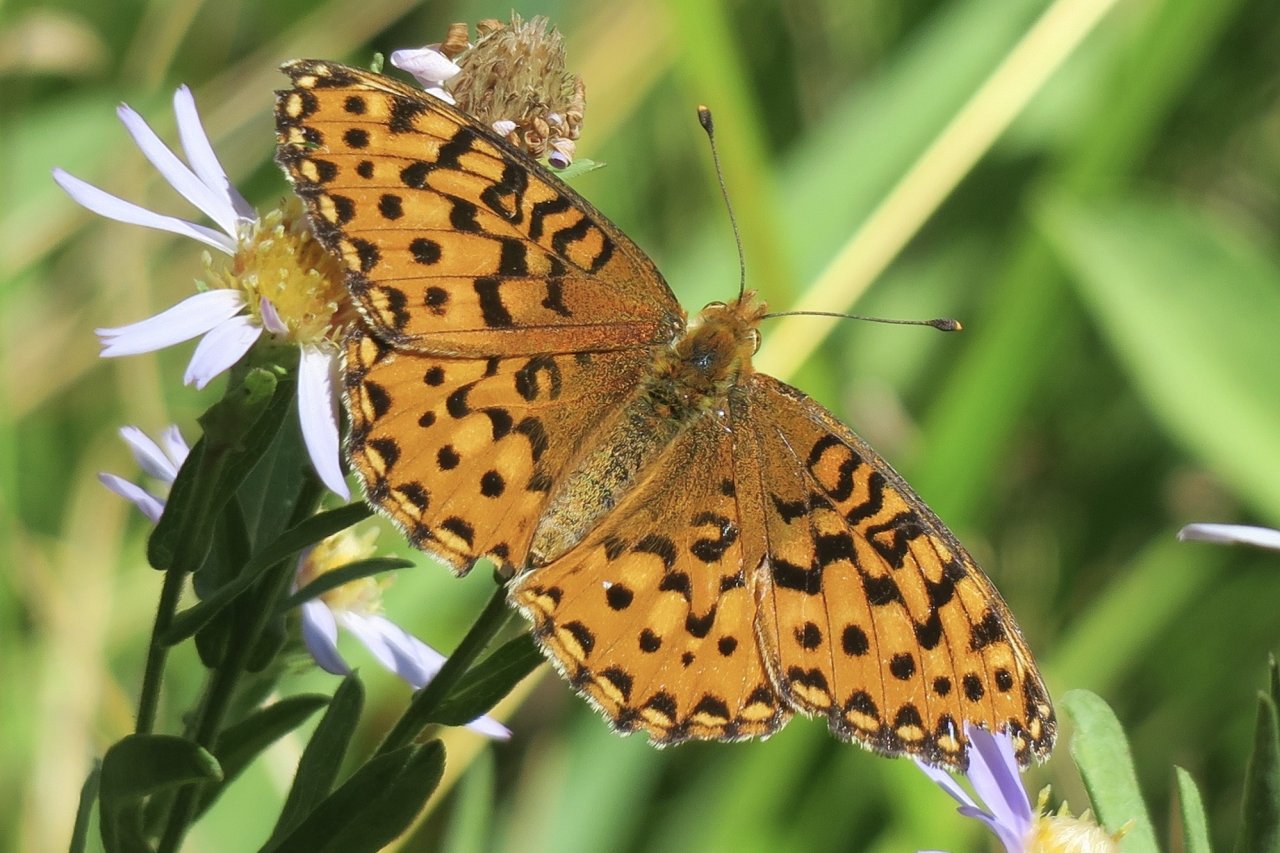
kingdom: Animalia
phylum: Arthropoda
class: Insecta
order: Lepidoptera
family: Nymphalidae
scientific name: Nymphalidae
